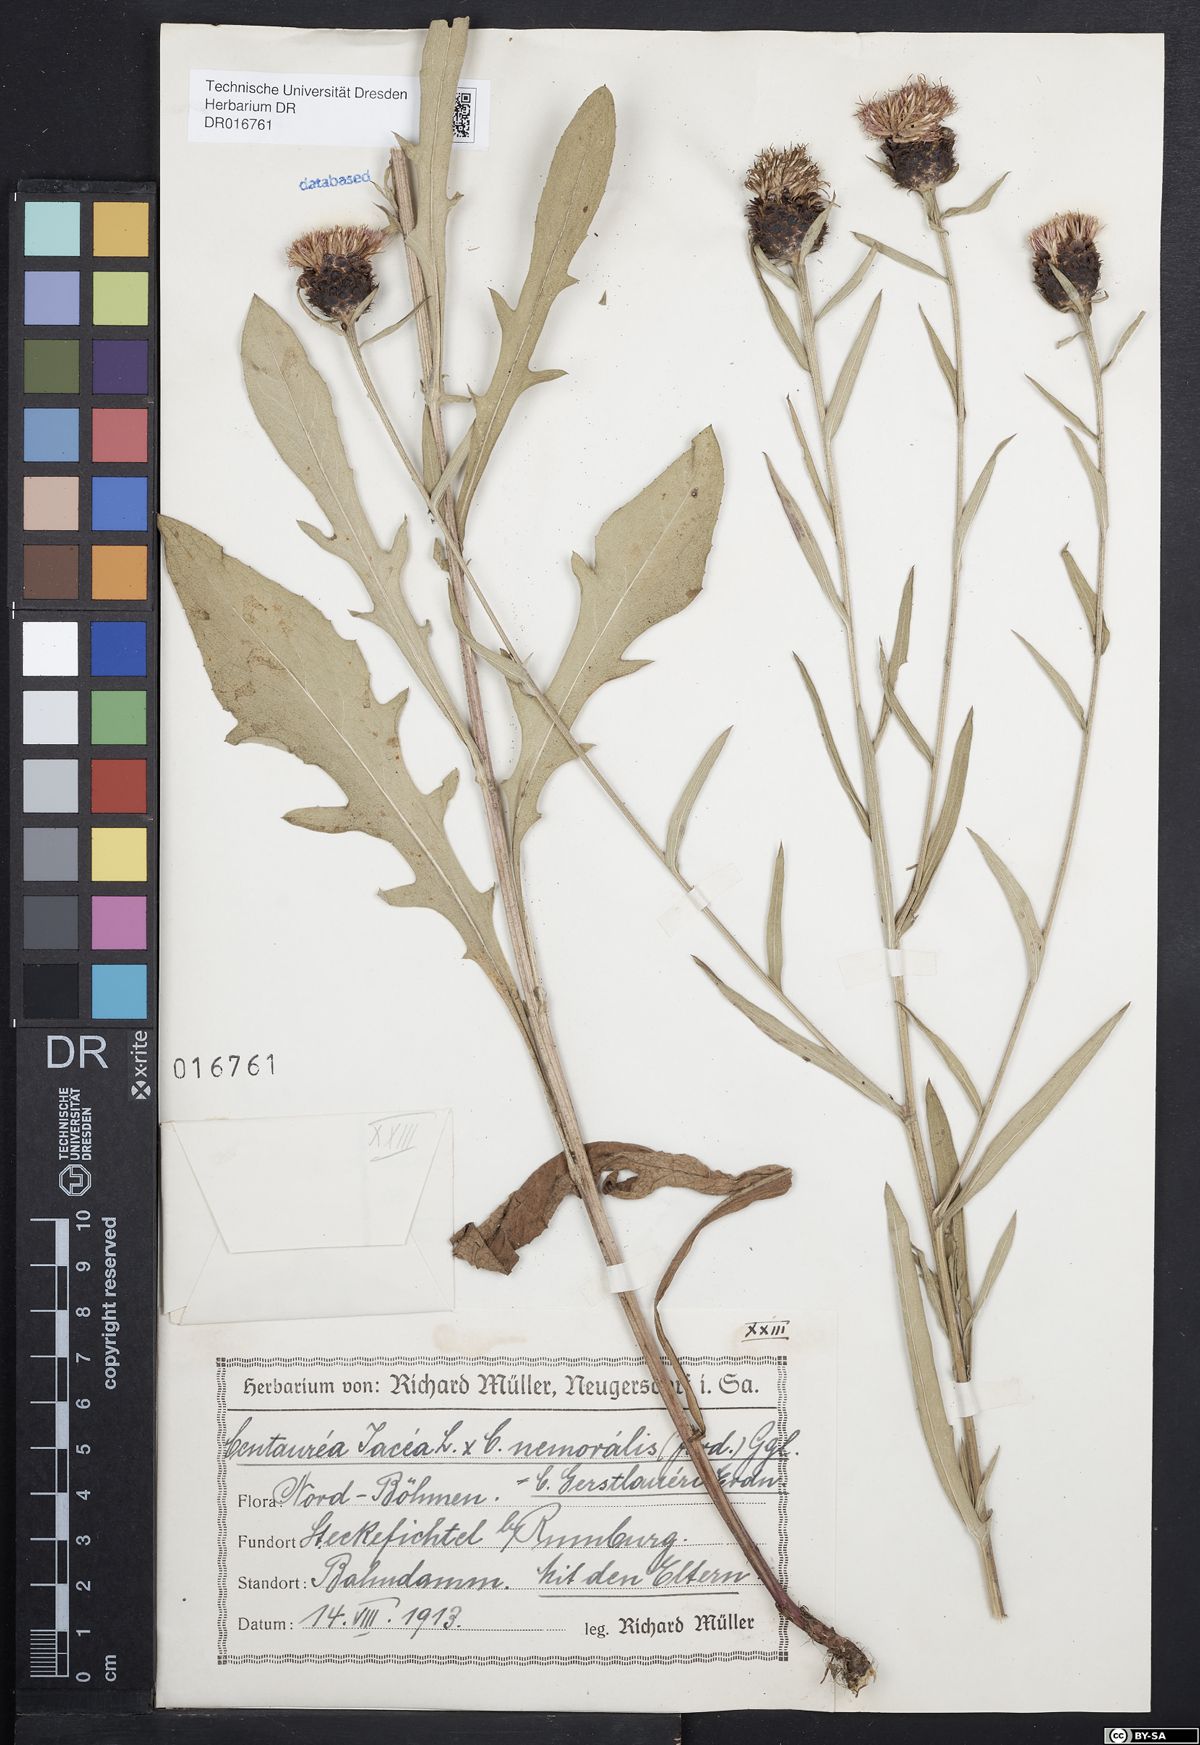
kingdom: Plantae
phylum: Tracheophyta
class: Magnoliopsida
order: Asterales
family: Asteraceae
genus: Centaurea
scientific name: Centaurea jacea
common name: Brown knapweed
